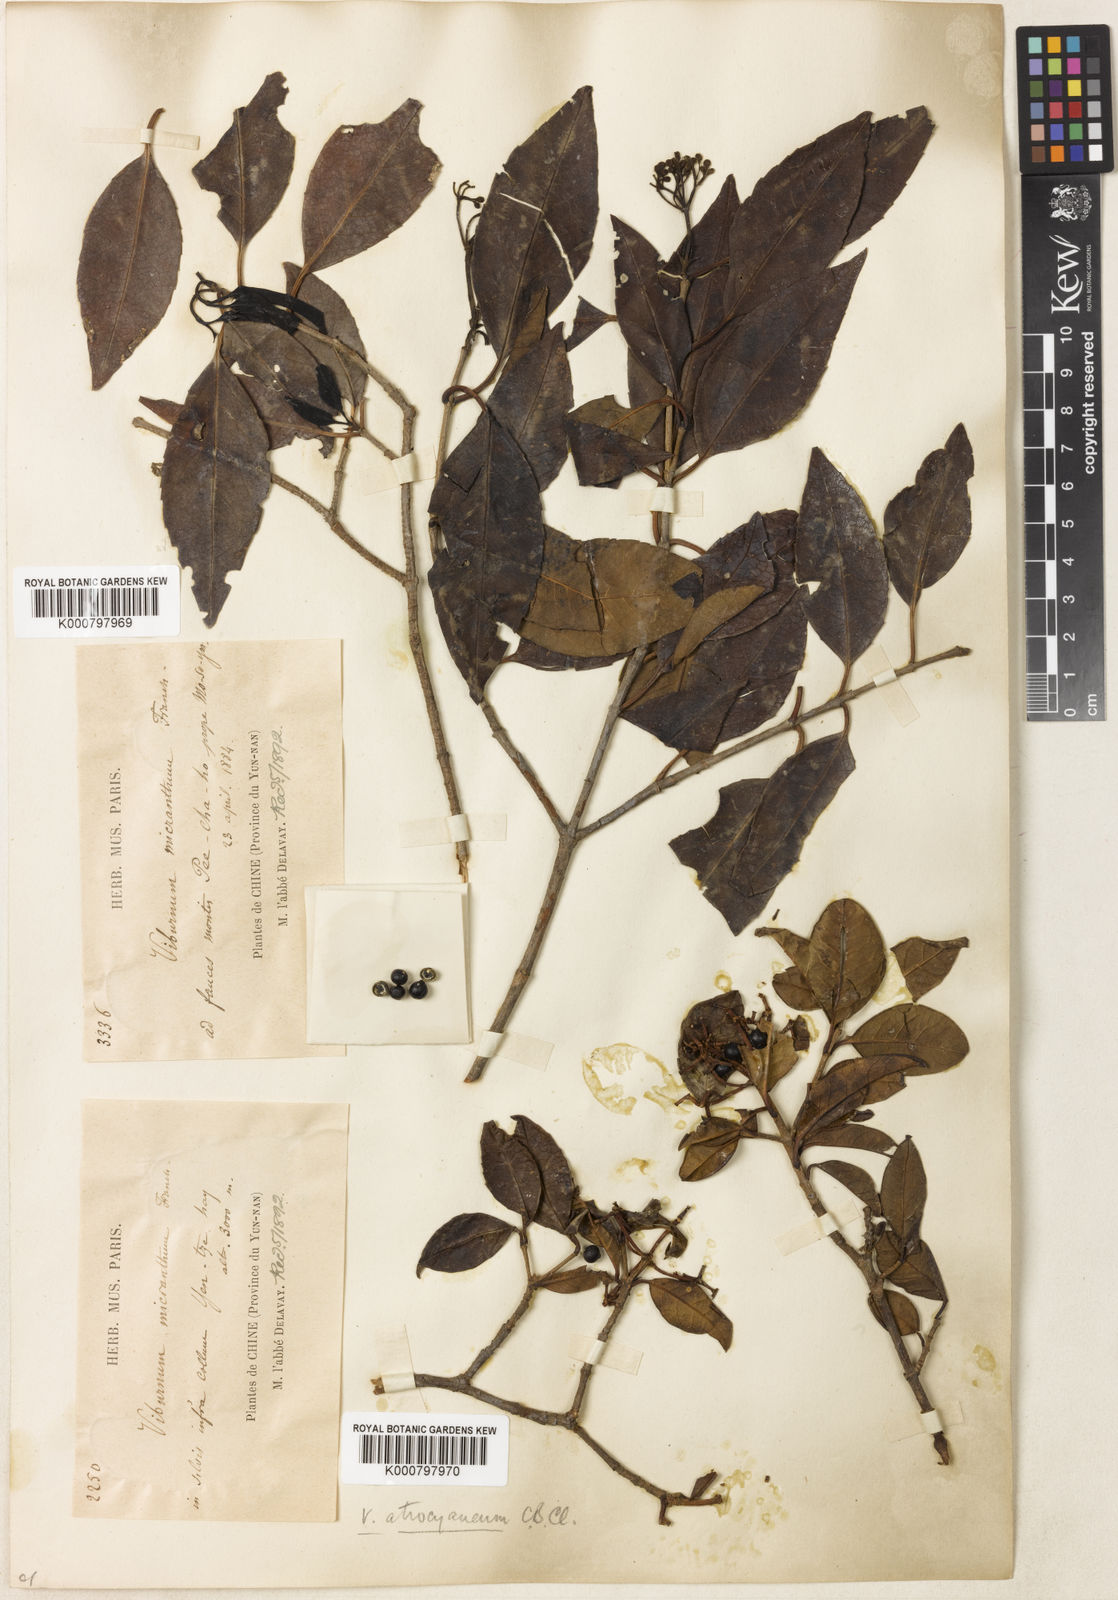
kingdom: Plantae
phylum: Tracheophyta
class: Magnoliopsida
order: Dipsacales
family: Viburnaceae
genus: Viburnum
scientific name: Viburnum atrocyaneum
